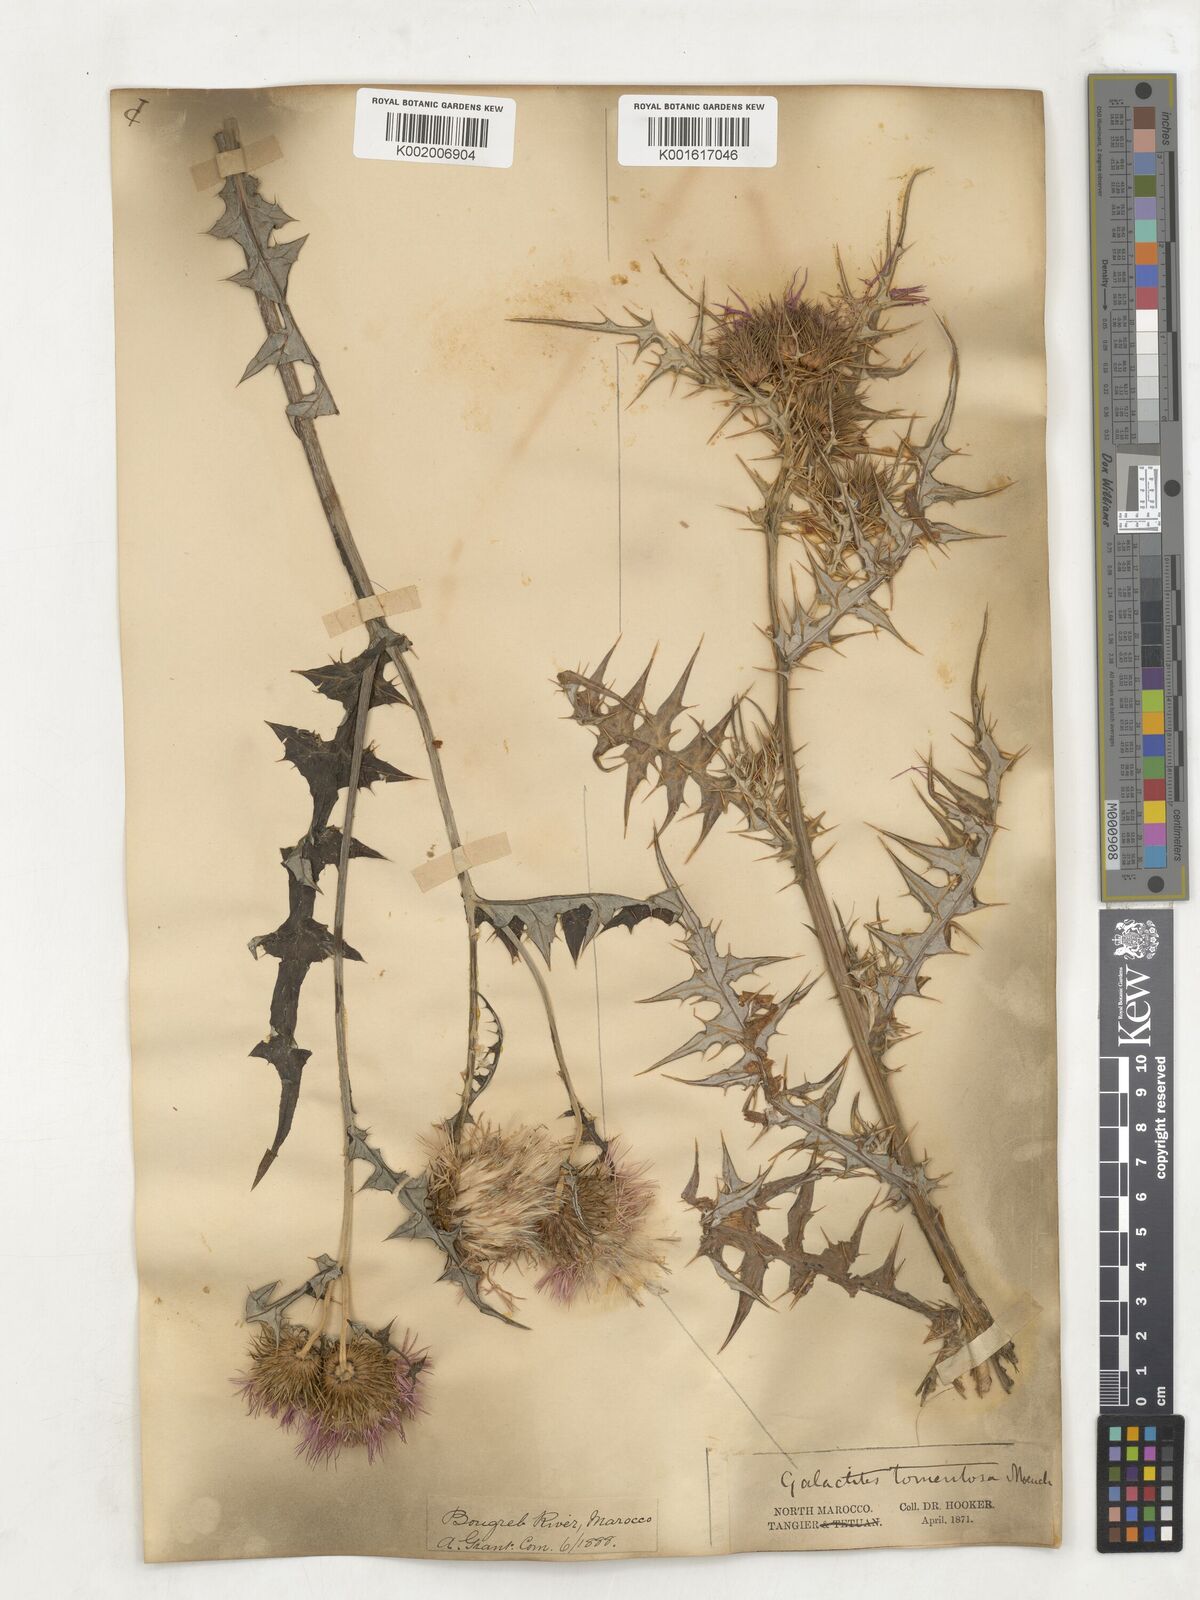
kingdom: Plantae
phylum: Tracheophyta
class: Magnoliopsida
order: Asterales
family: Asteraceae
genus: Galactites
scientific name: Galactites
